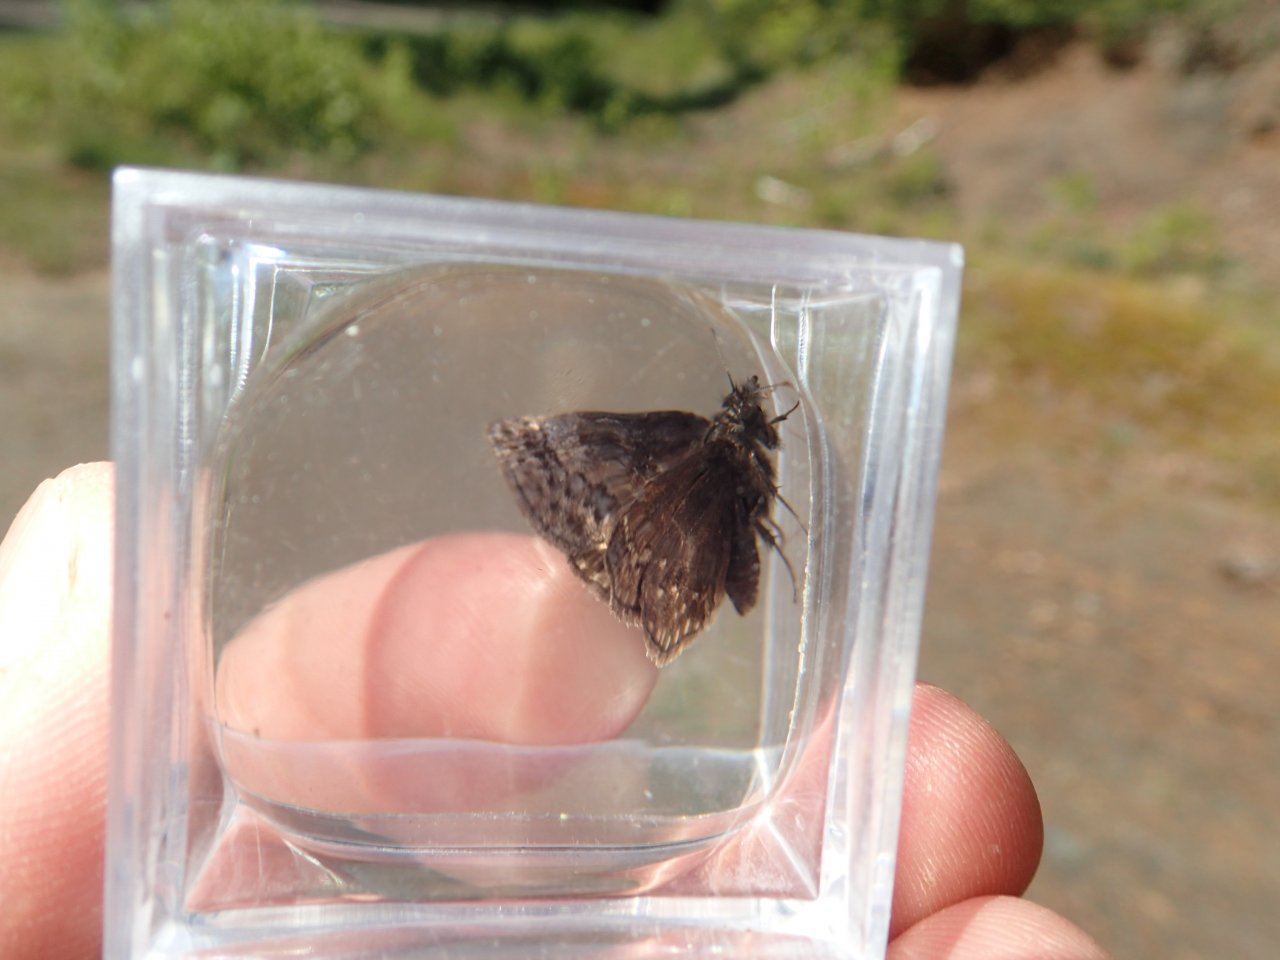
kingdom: Animalia
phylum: Arthropoda
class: Insecta
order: Lepidoptera
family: Hesperiidae
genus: Erynnis
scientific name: Erynnis icelus
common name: Dreamy Duskywing
